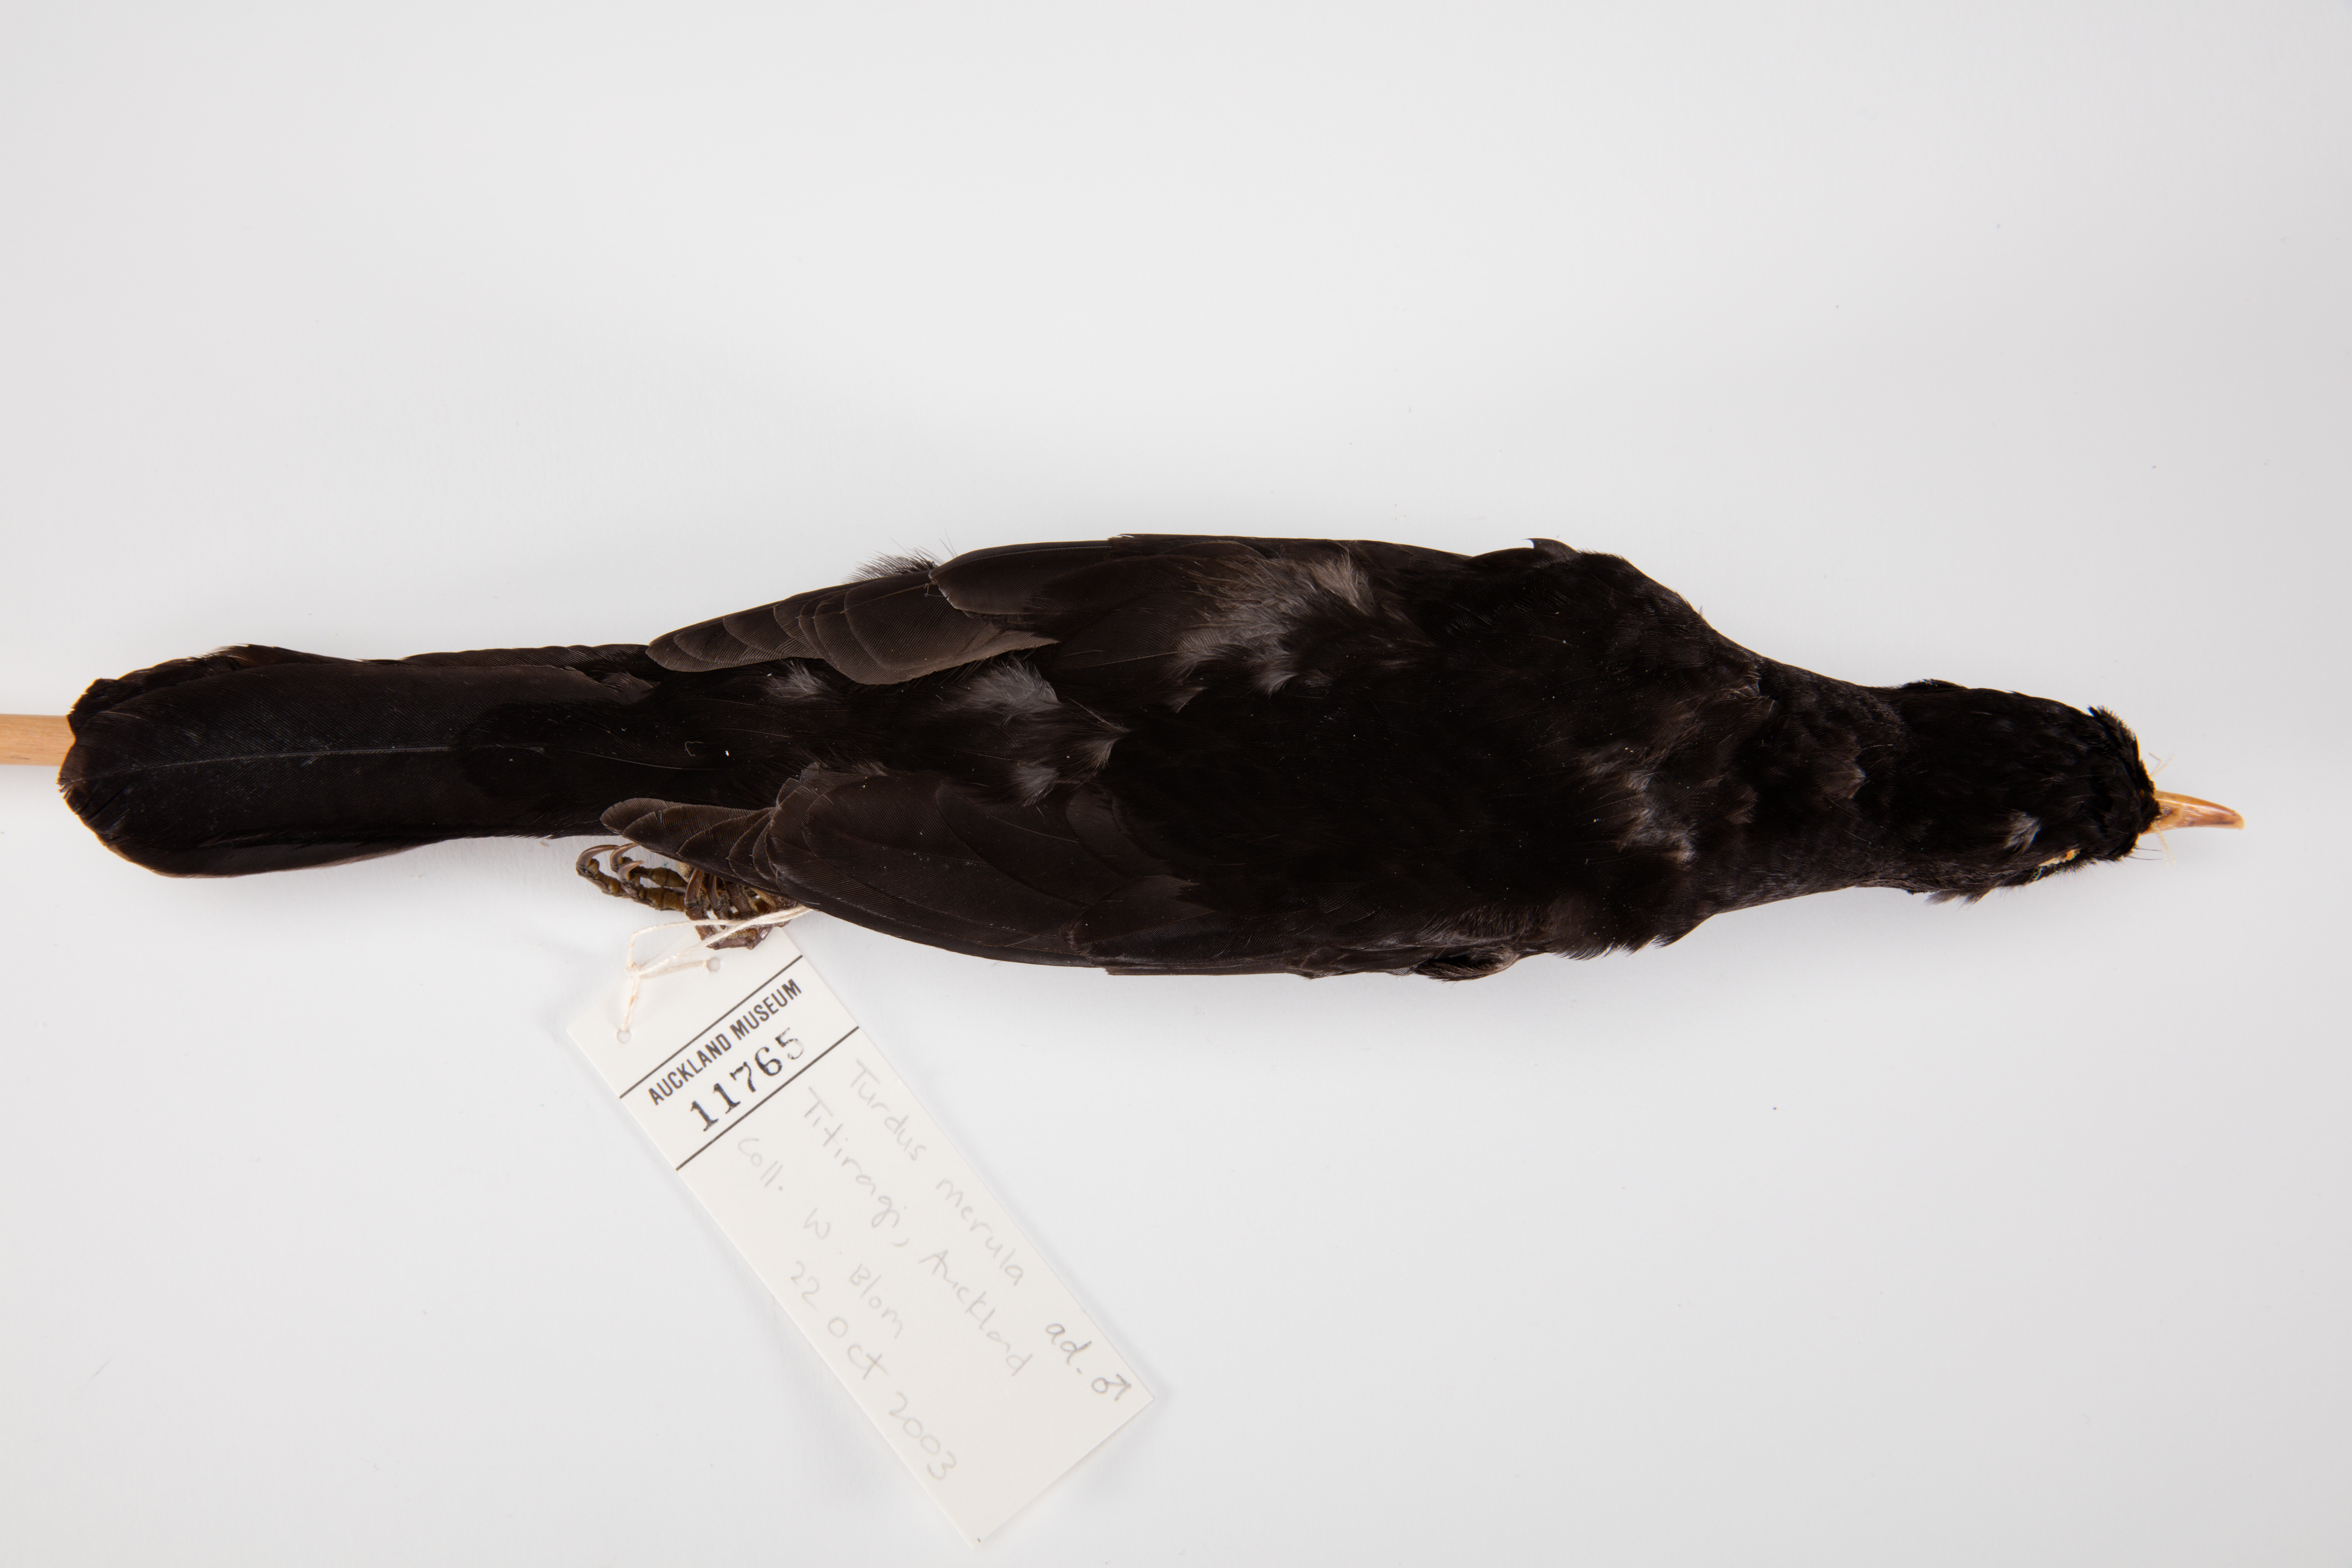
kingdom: Animalia
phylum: Chordata
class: Aves
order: Passeriformes
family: Turdidae
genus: Turdus
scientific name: Turdus merula
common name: Common blackbird
